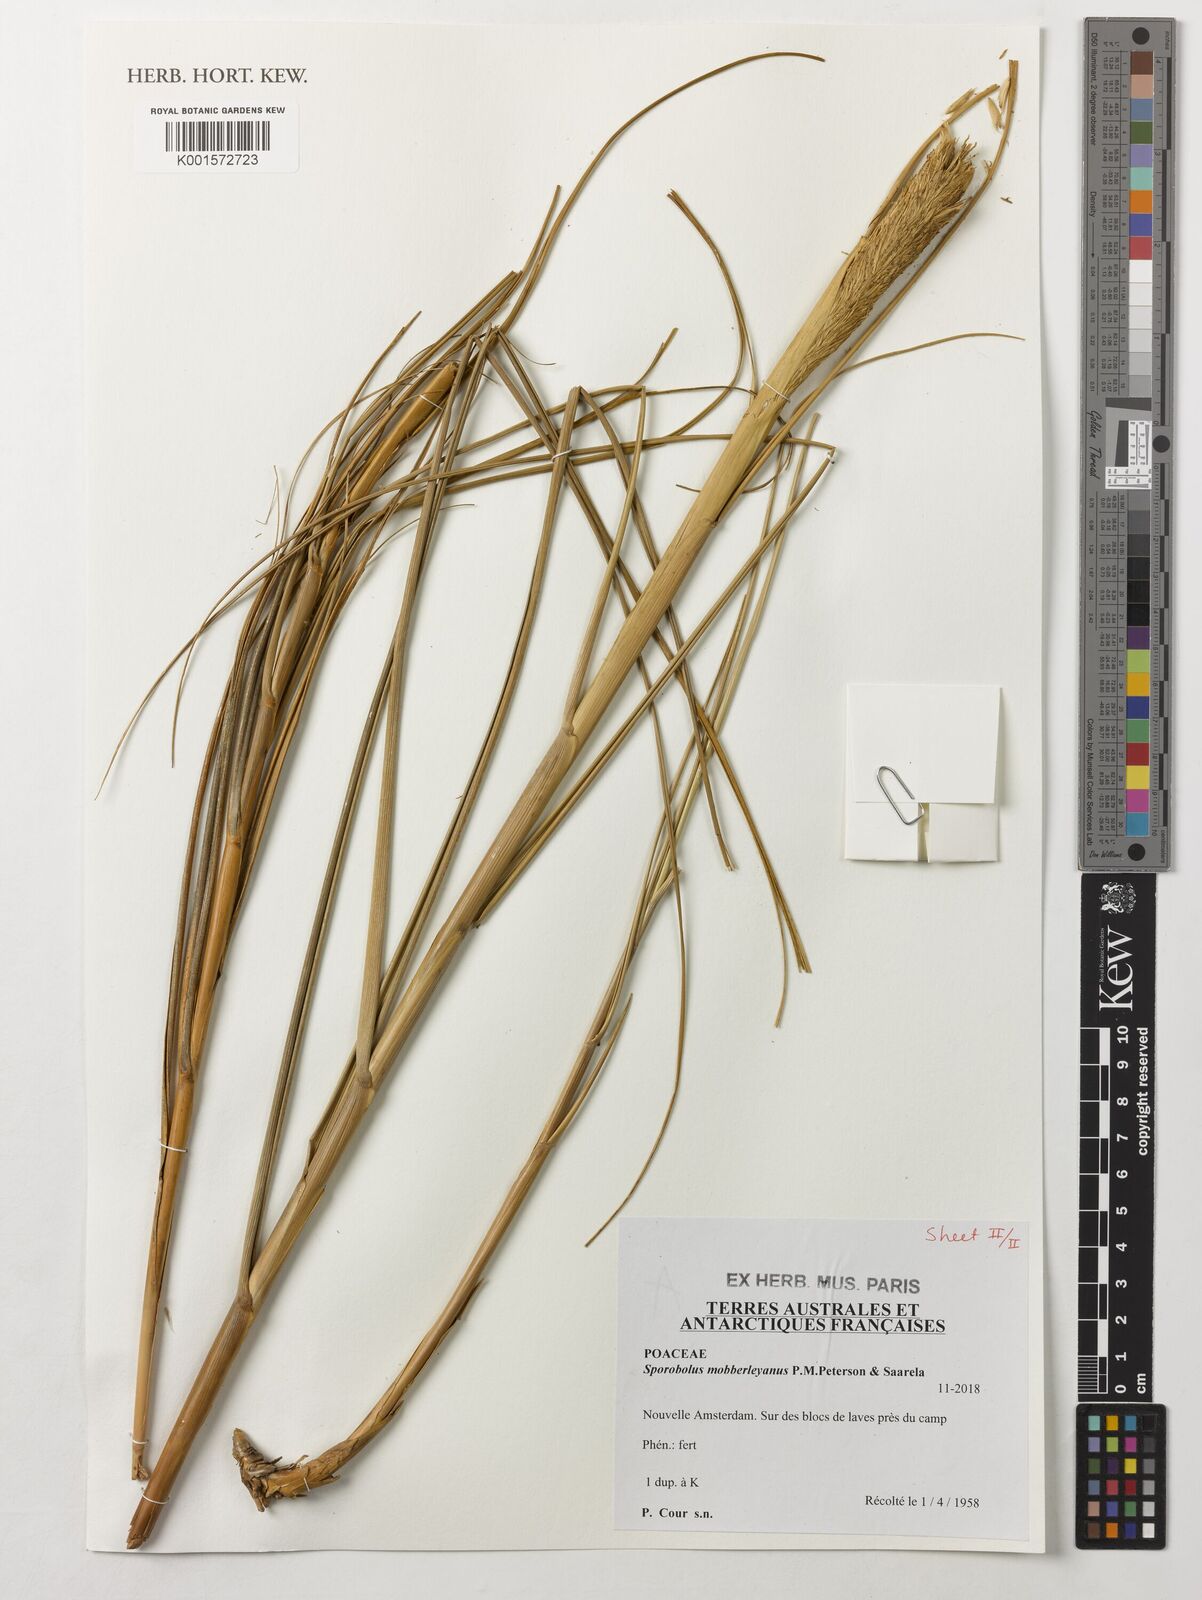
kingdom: Plantae
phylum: Tracheophyta
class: Liliopsida
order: Poales
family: Poaceae
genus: Sporobolus
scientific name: Sporobolus mobberleyanus
